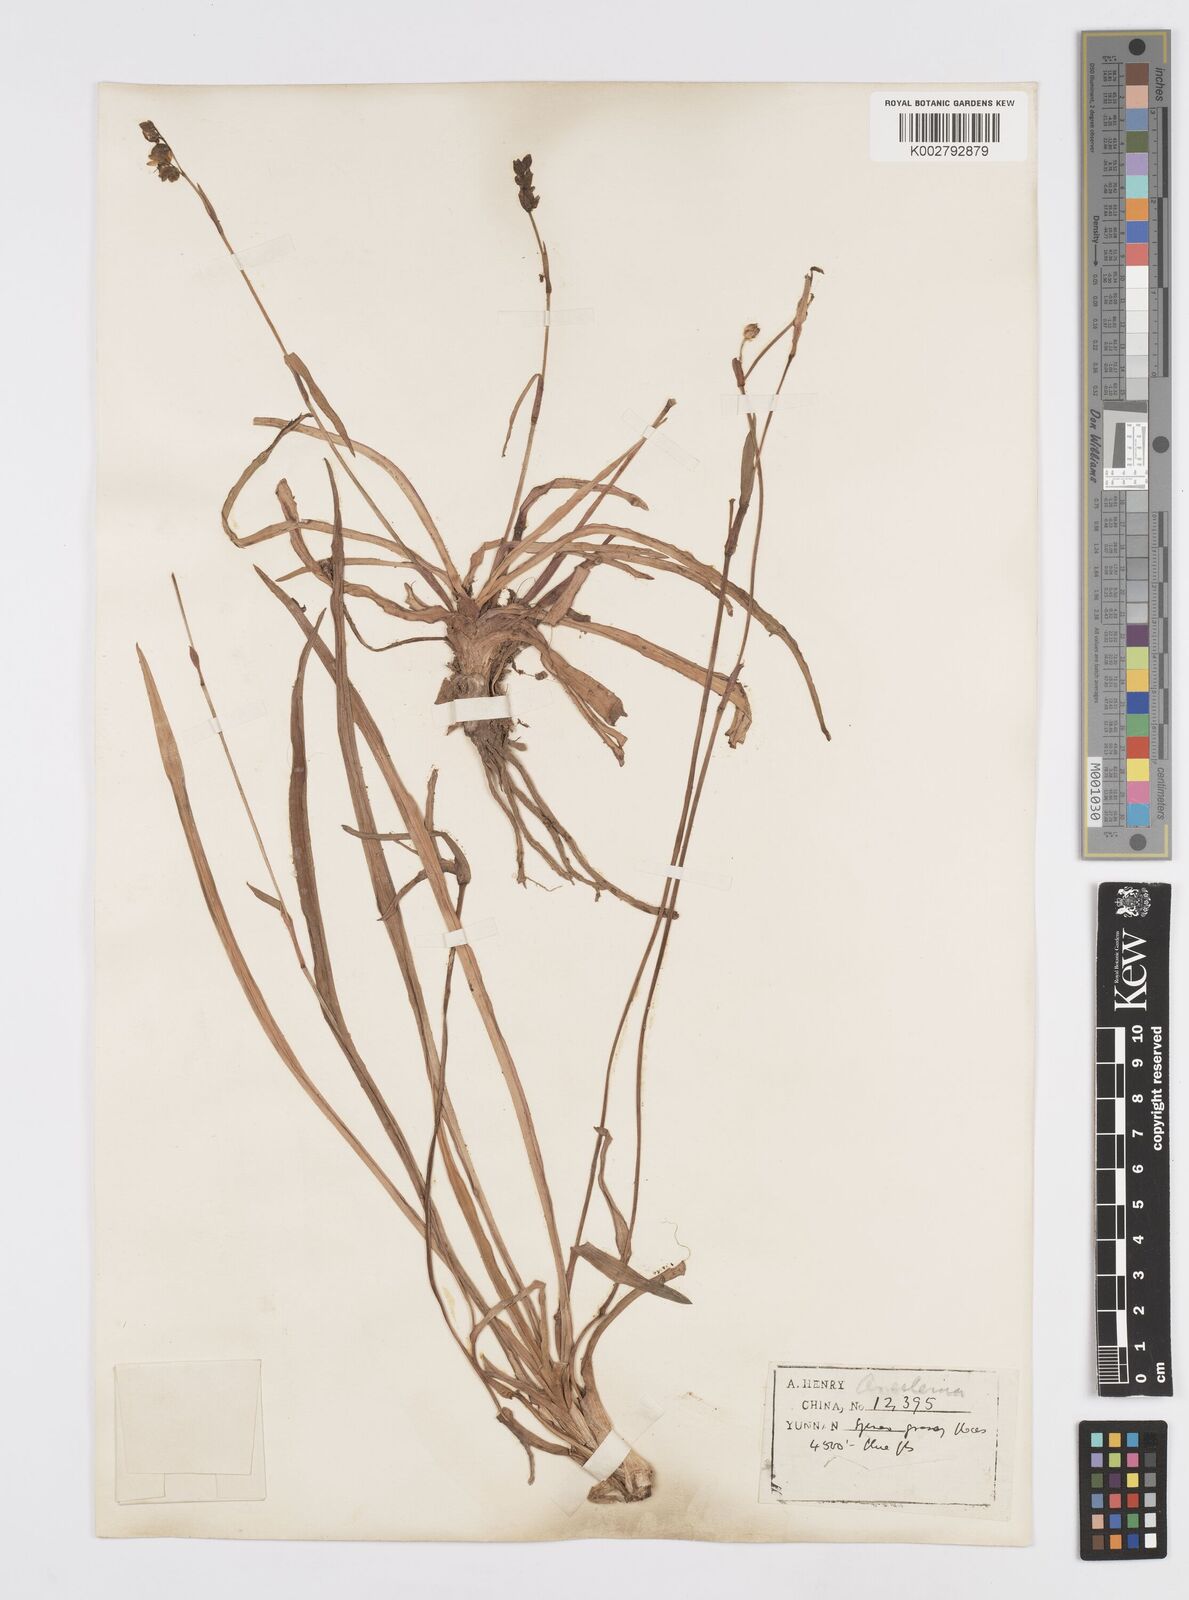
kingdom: Plantae
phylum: Tracheophyta
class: Liliopsida
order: Commelinales
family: Commelinaceae
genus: Murdannia
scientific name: Murdannia
